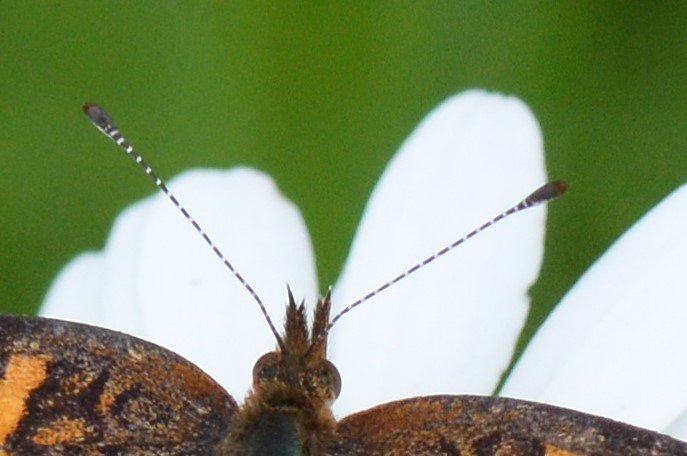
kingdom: Animalia
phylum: Arthropoda
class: Insecta
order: Lepidoptera
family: Nymphalidae
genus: Phyciodes
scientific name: Phyciodes
